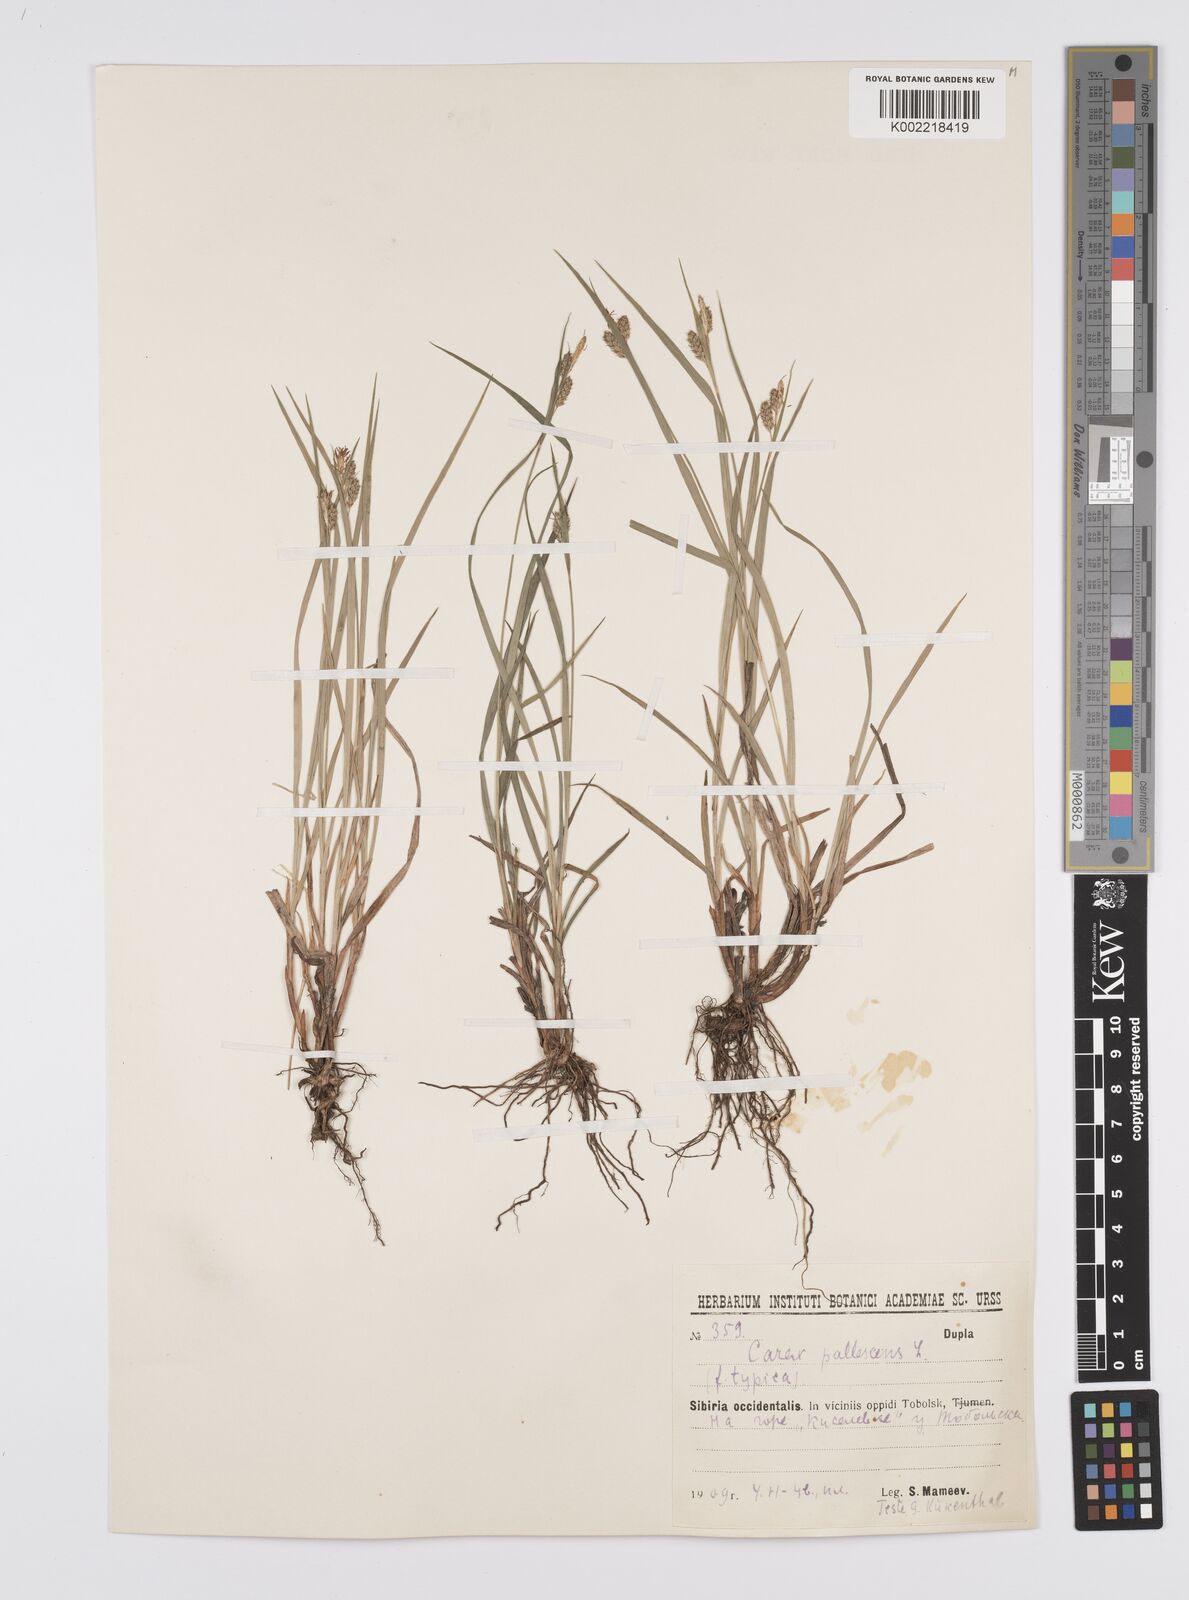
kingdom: Plantae
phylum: Tracheophyta
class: Liliopsida
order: Poales
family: Cyperaceae
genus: Carex
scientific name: Carex pallescens
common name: Pale sedge
